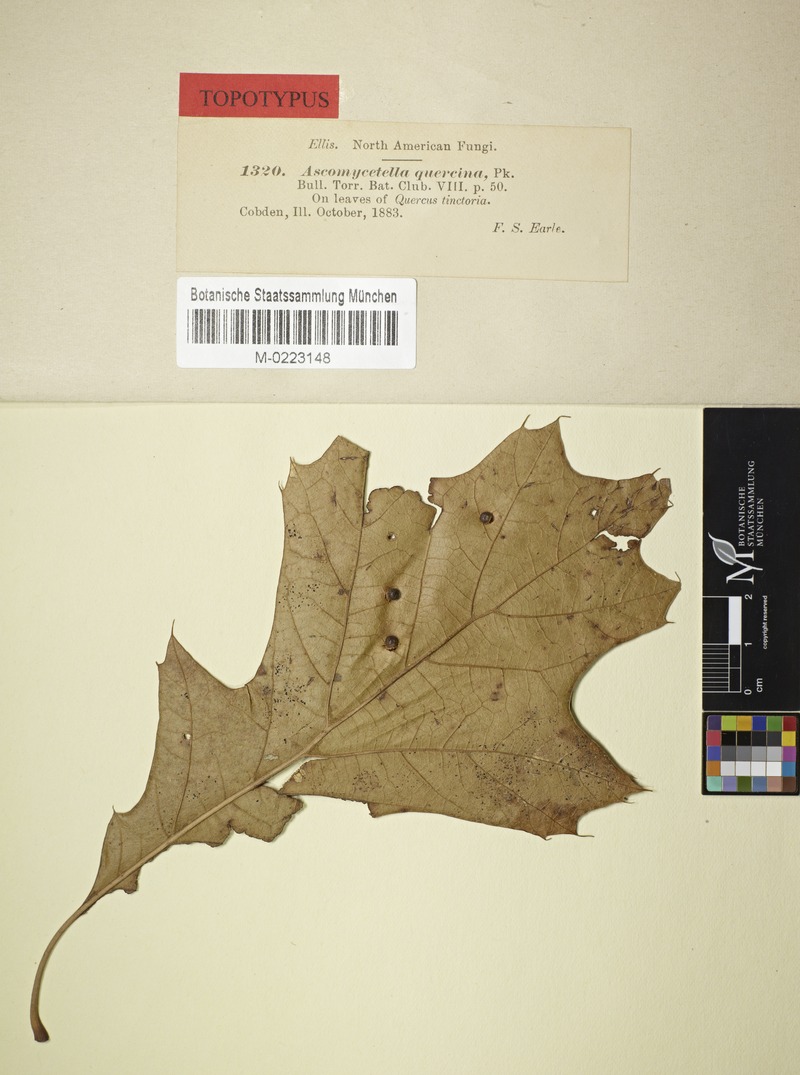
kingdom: Fungi
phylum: Ascomycota
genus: Articularia
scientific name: Articularia quercina
